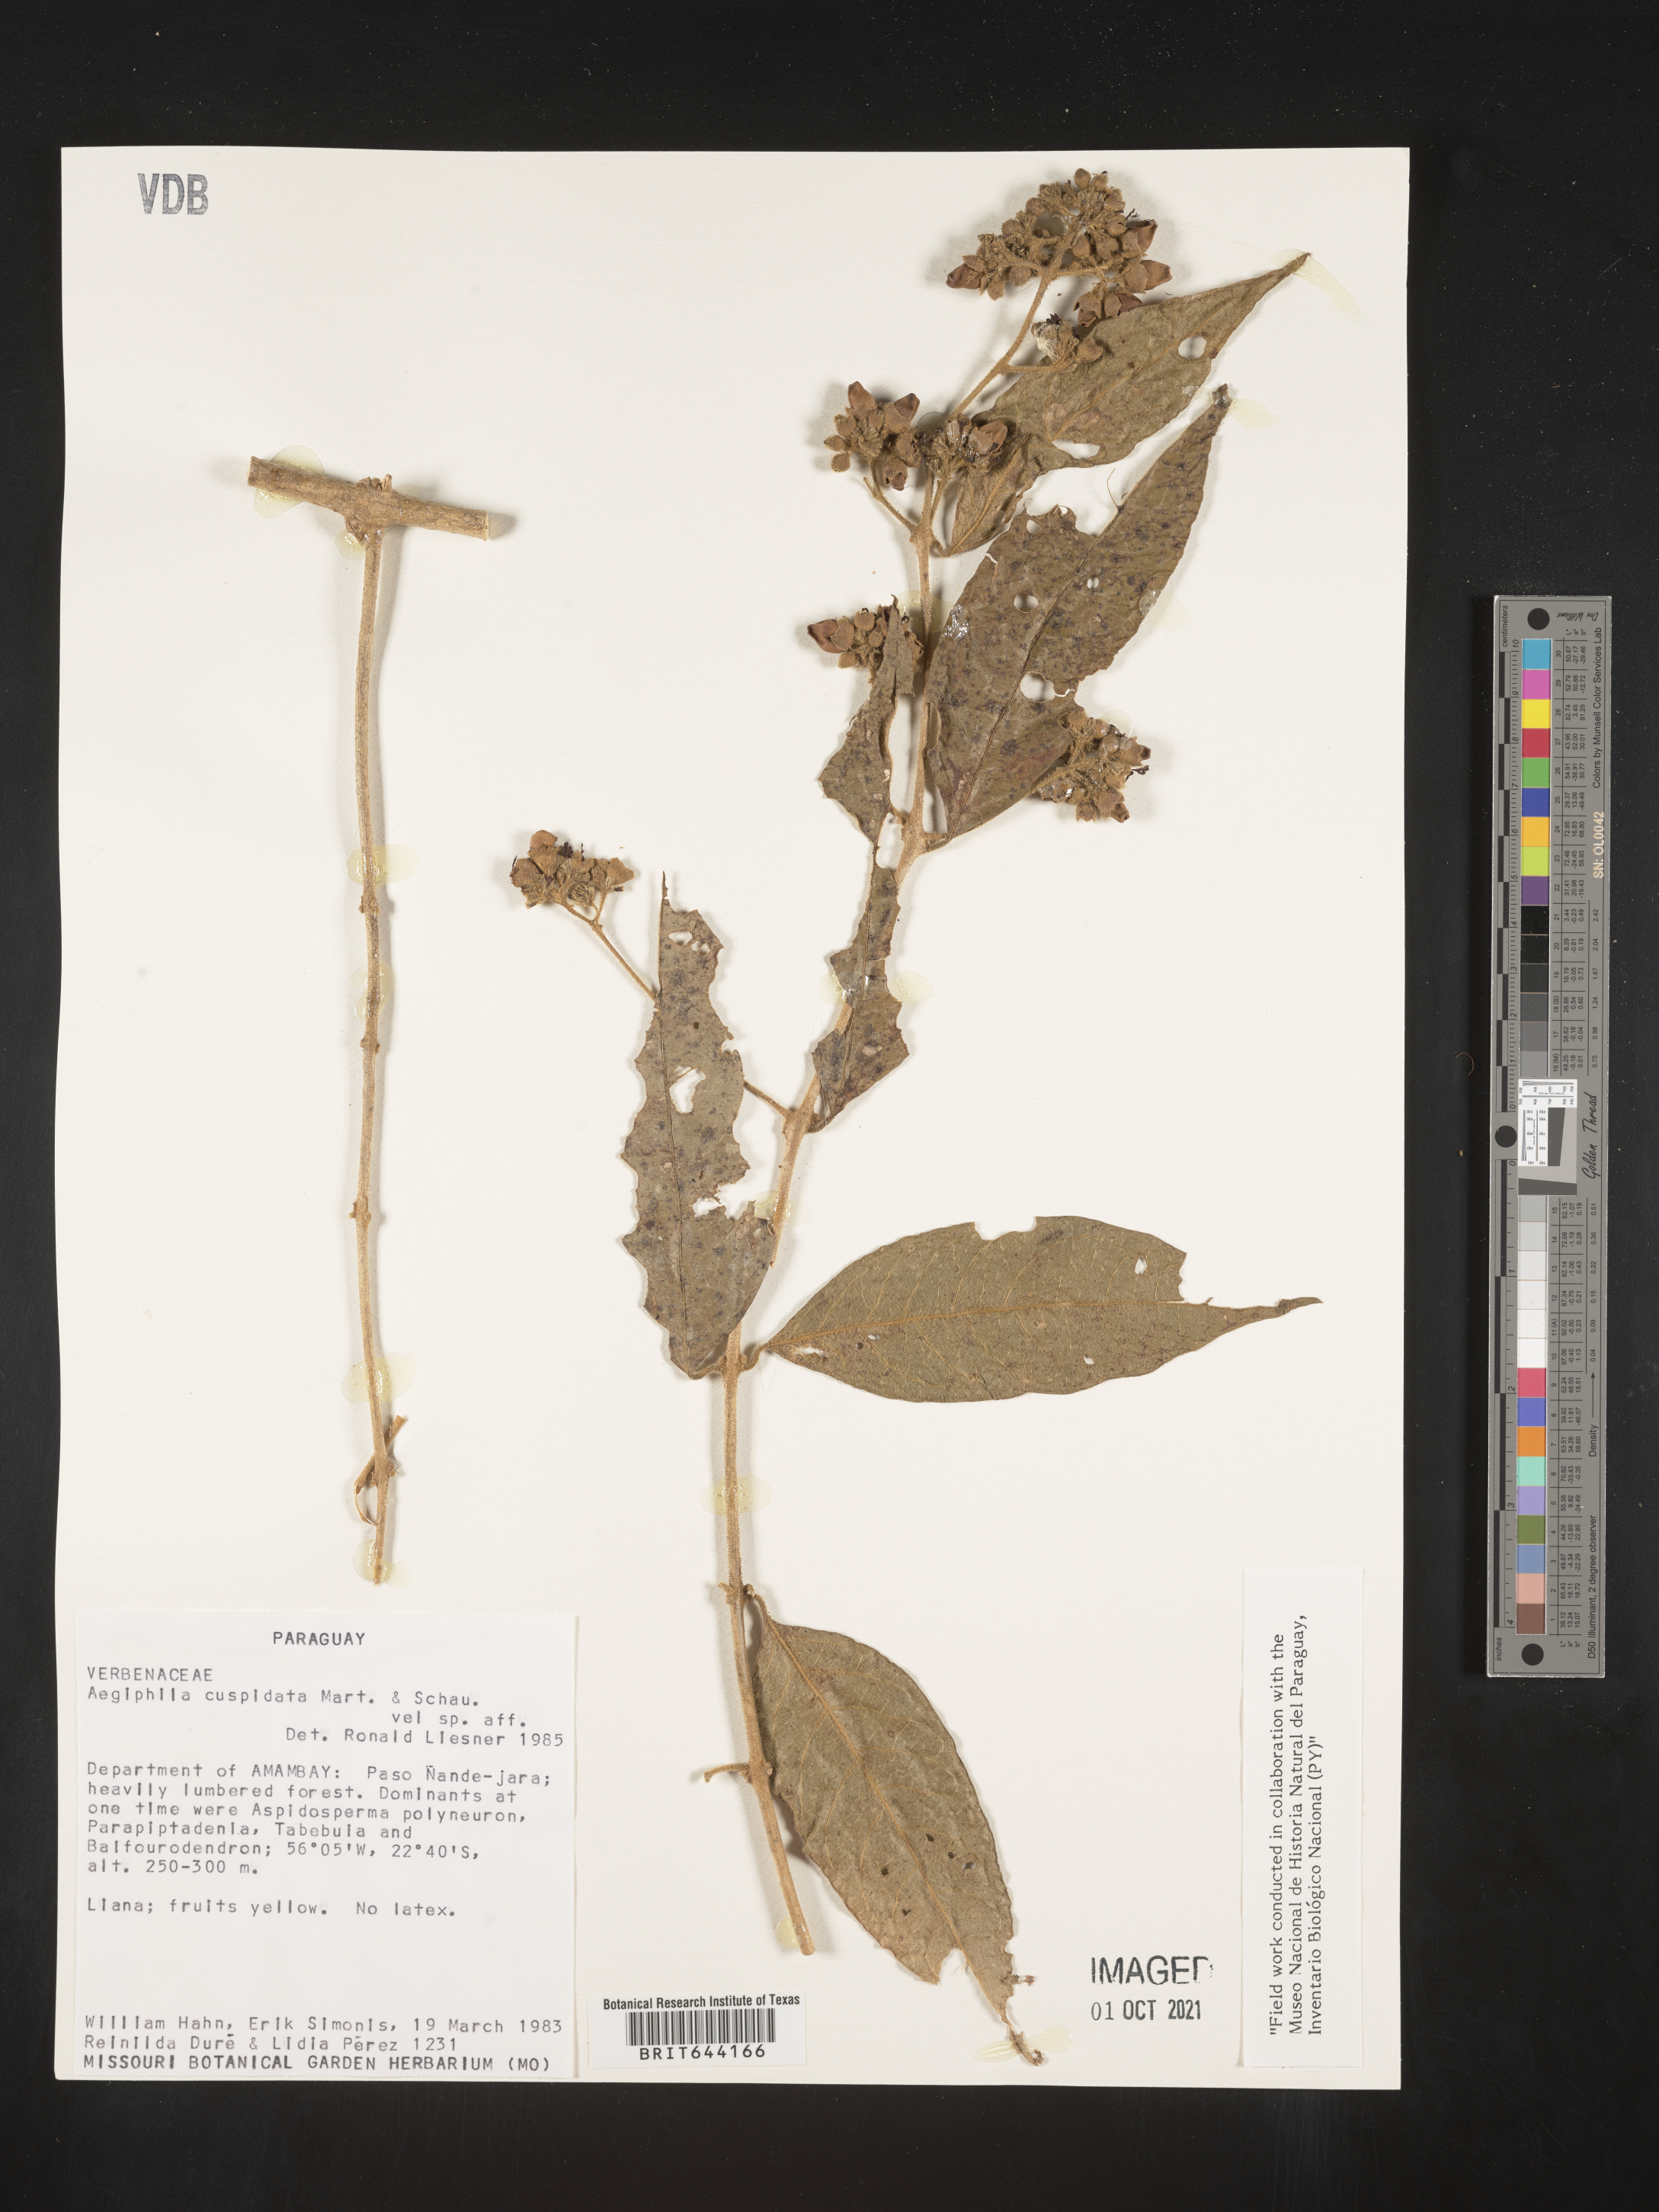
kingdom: Plantae
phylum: Tracheophyta
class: Magnoliopsida
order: Lamiales
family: Lamiaceae
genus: Aegiphila
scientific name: Aegiphila
